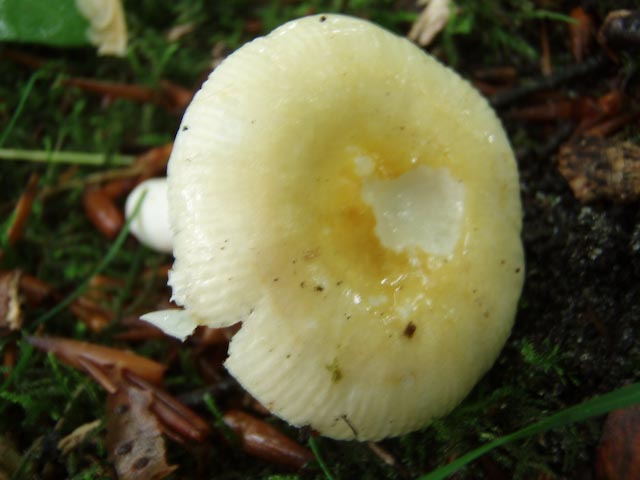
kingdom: Fungi
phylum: Basidiomycota
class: Agaricomycetes
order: Russulales
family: Russulaceae
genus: Russula
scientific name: Russula solaris
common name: sol-skørhat
